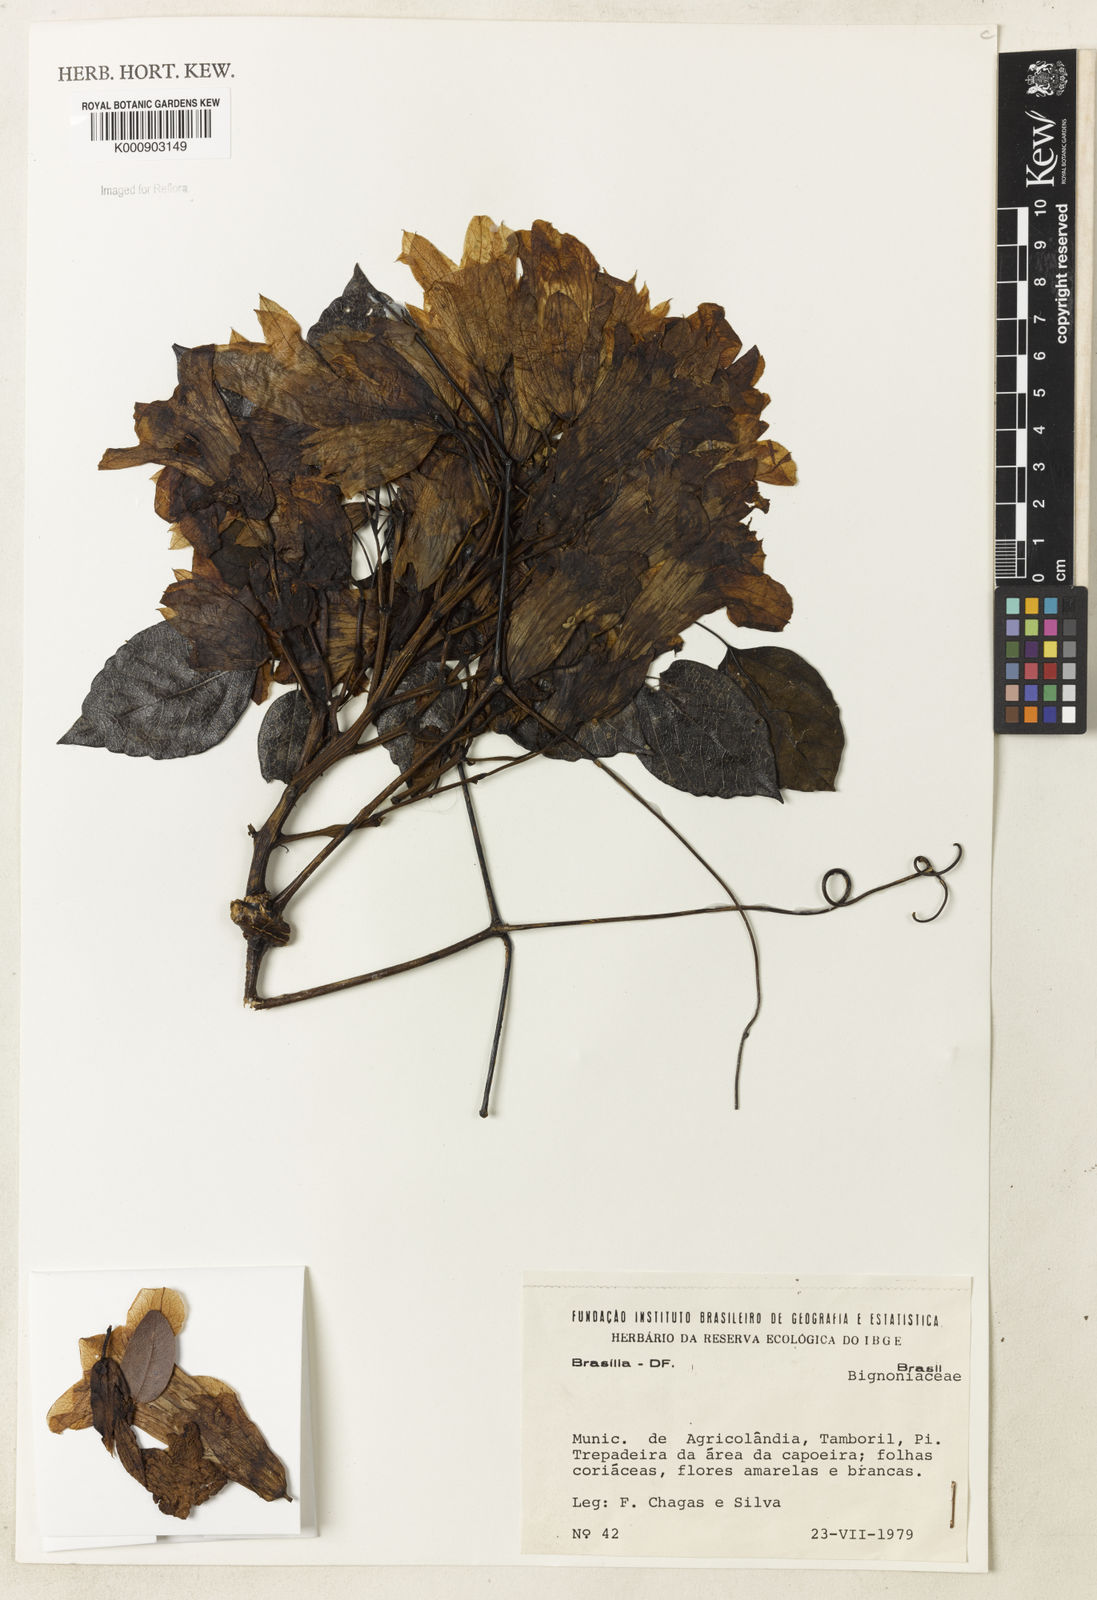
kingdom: Plantae
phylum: Tracheophyta
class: Magnoliopsida
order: Lamiales
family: Bignoniaceae
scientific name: Bignoniaceae
